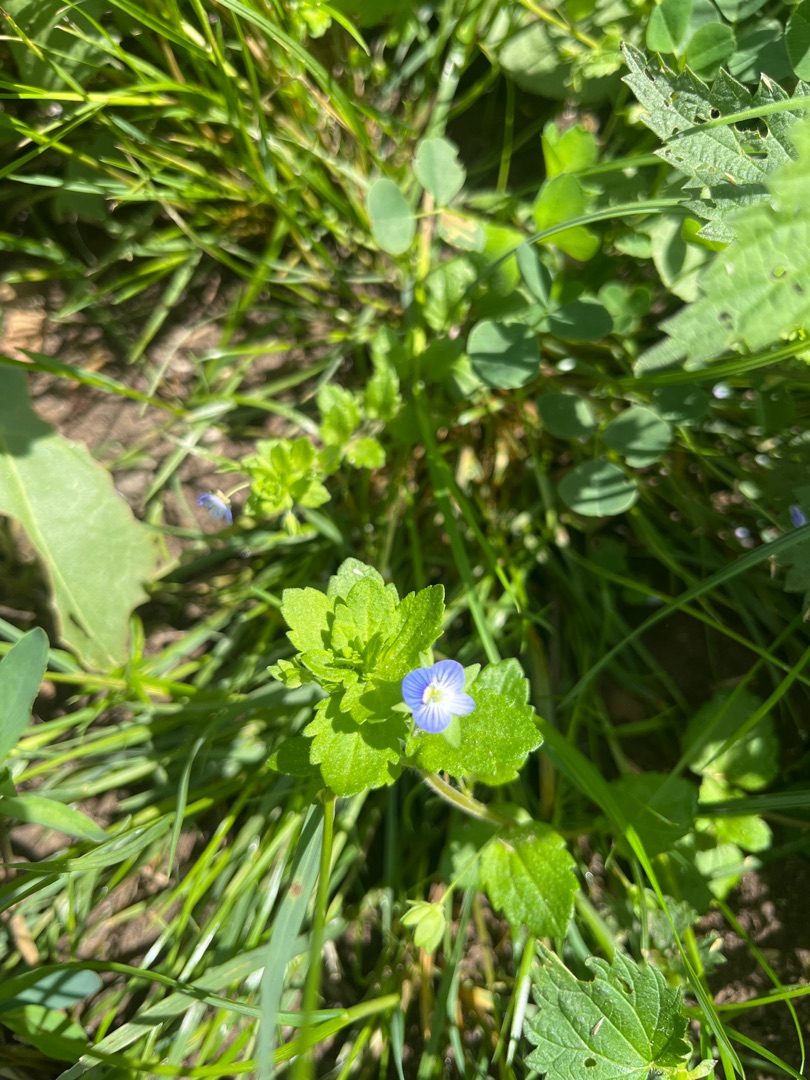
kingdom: Plantae
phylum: Tracheophyta
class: Magnoliopsida
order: Lamiales
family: Plantaginaceae
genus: Veronica
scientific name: Veronica persica
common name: Storkronet ærenpris
